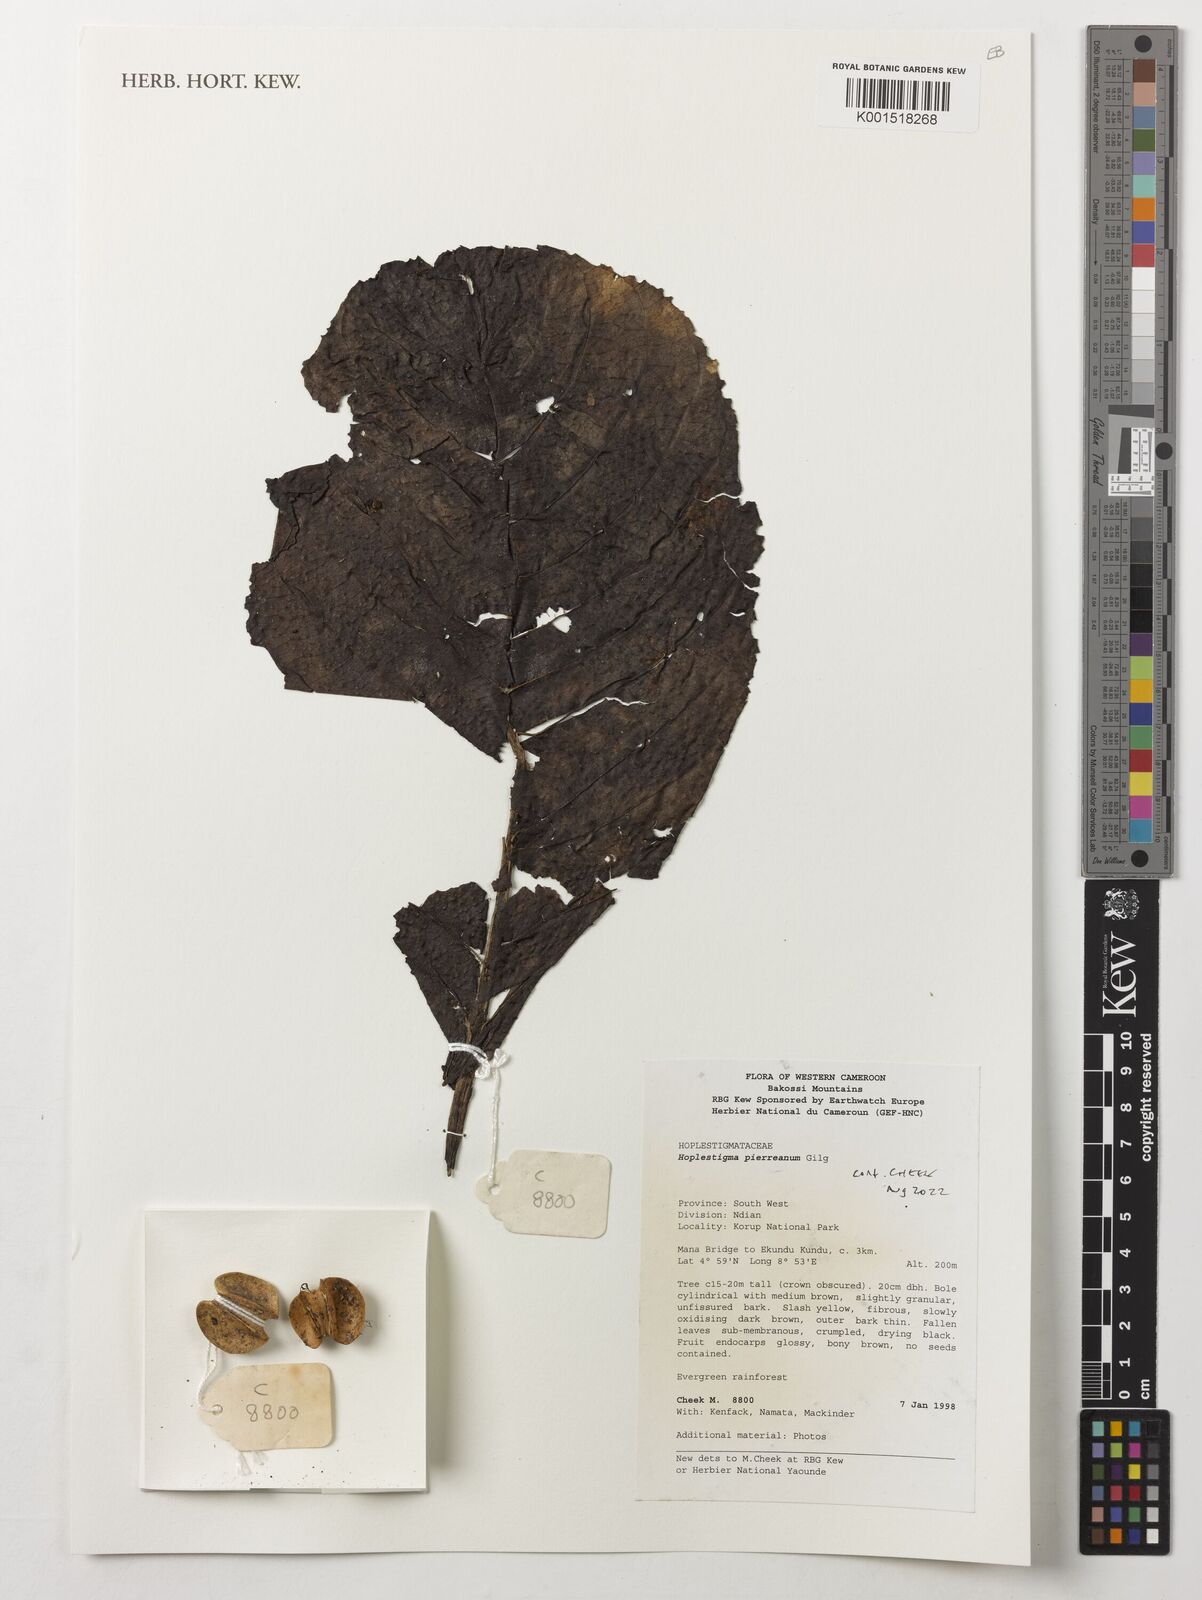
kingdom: Plantae
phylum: Tracheophyta
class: Magnoliopsida
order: Boraginales
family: Hoplestigmataceae
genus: Hoplestigma
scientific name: Hoplestigma pierreanum
